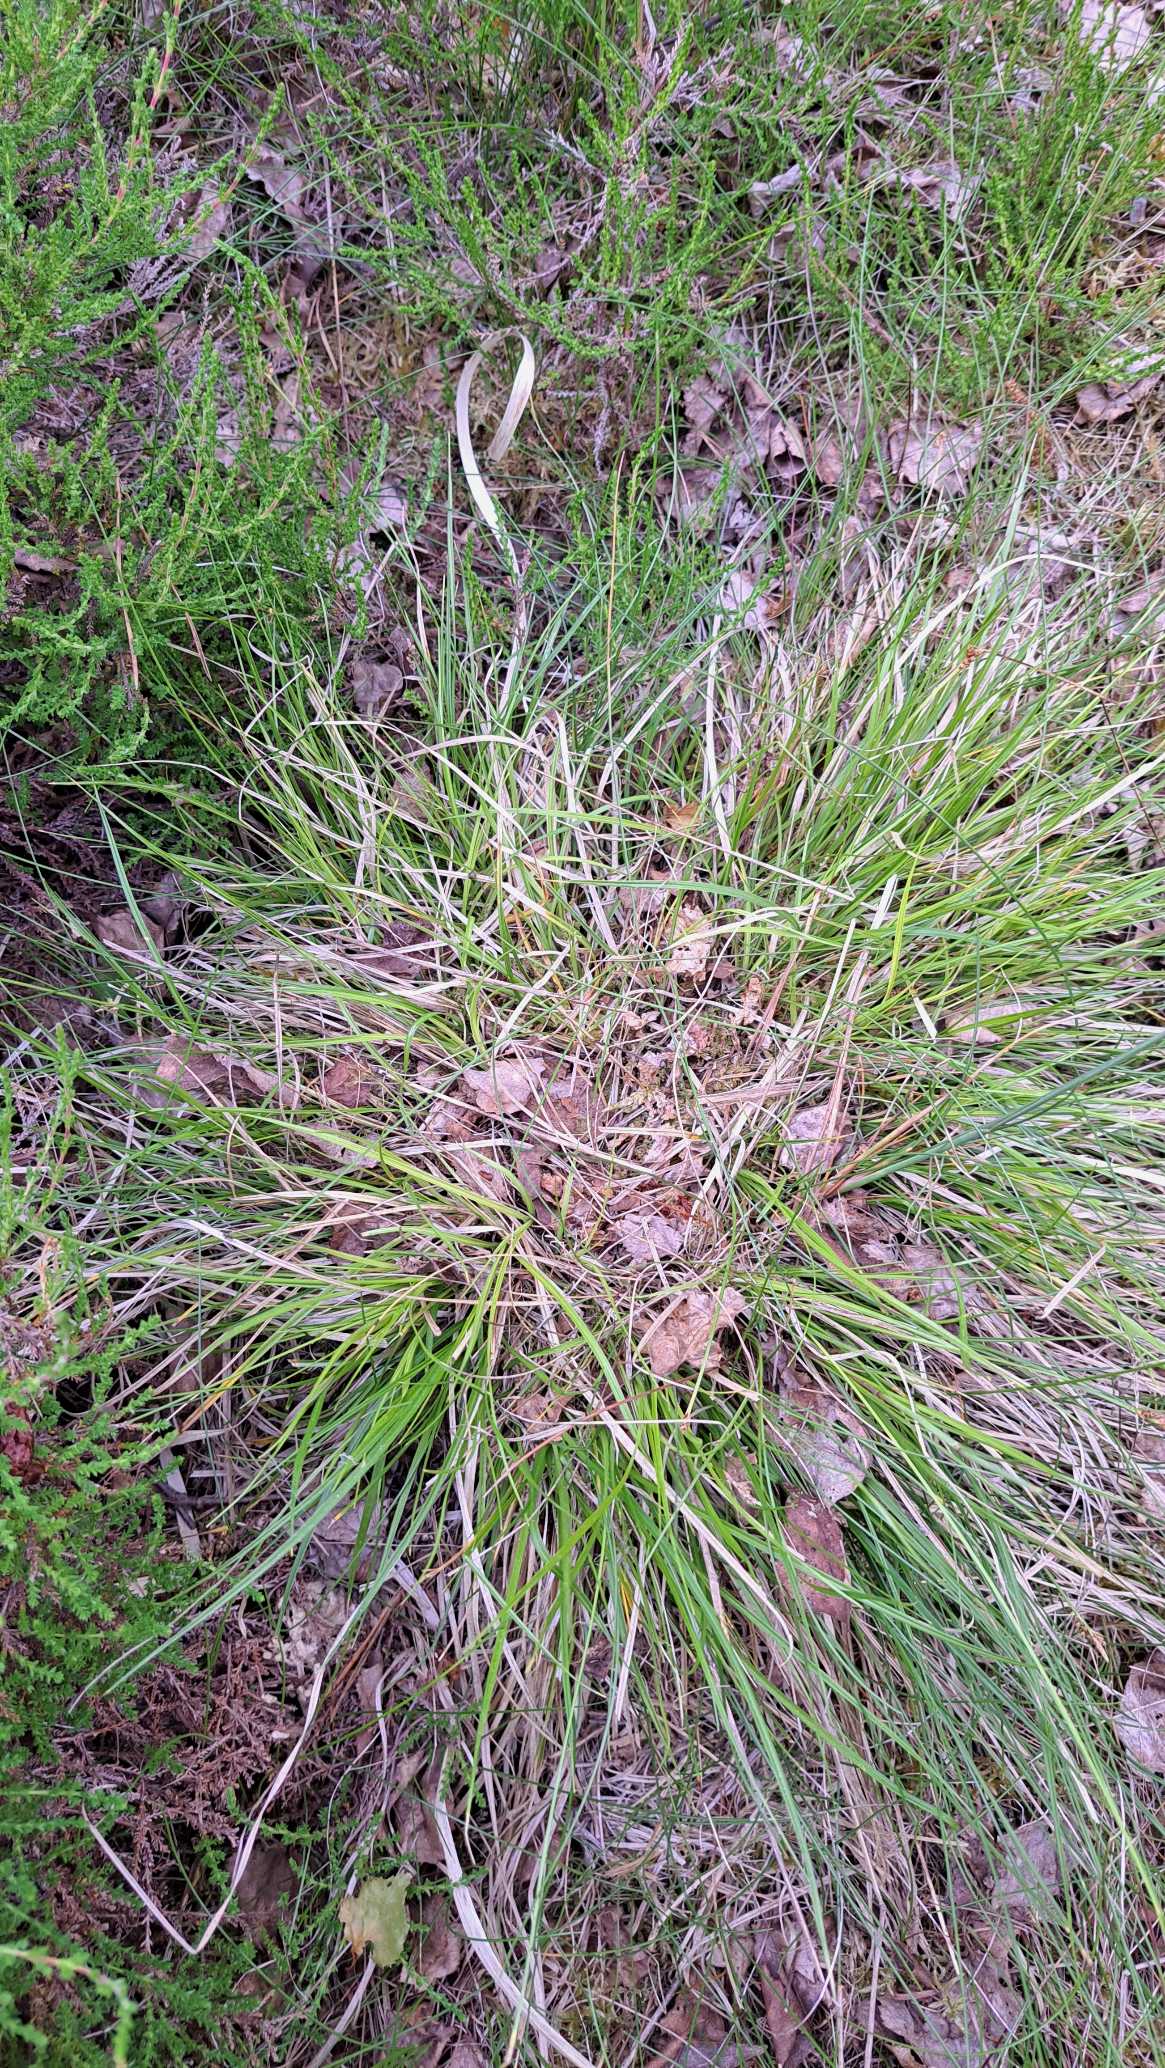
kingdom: Plantae
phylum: Tracheophyta
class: Liliopsida
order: Poales
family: Cyperaceae
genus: Carex
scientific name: Carex pilulifera
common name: Pille-star
